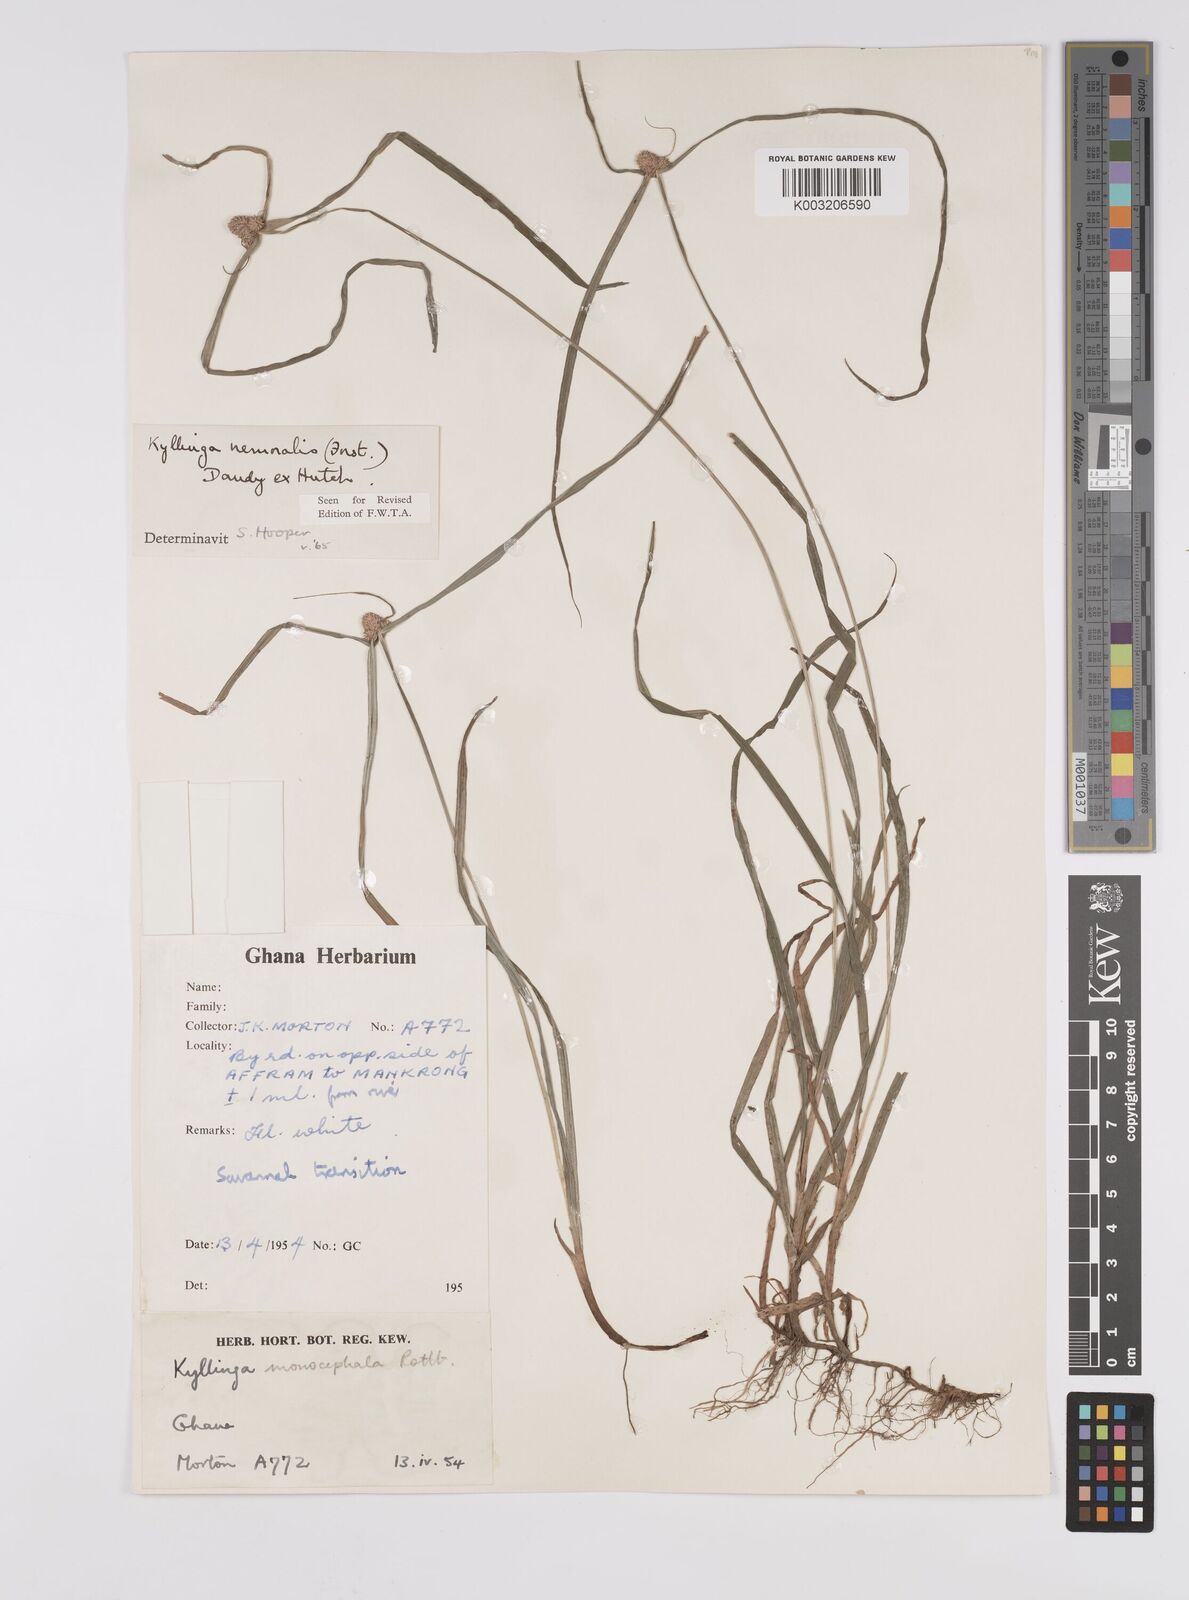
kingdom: Plantae
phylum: Tracheophyta
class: Liliopsida
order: Poales
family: Cyperaceae
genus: Cyperus
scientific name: Cyperus nemoralis
